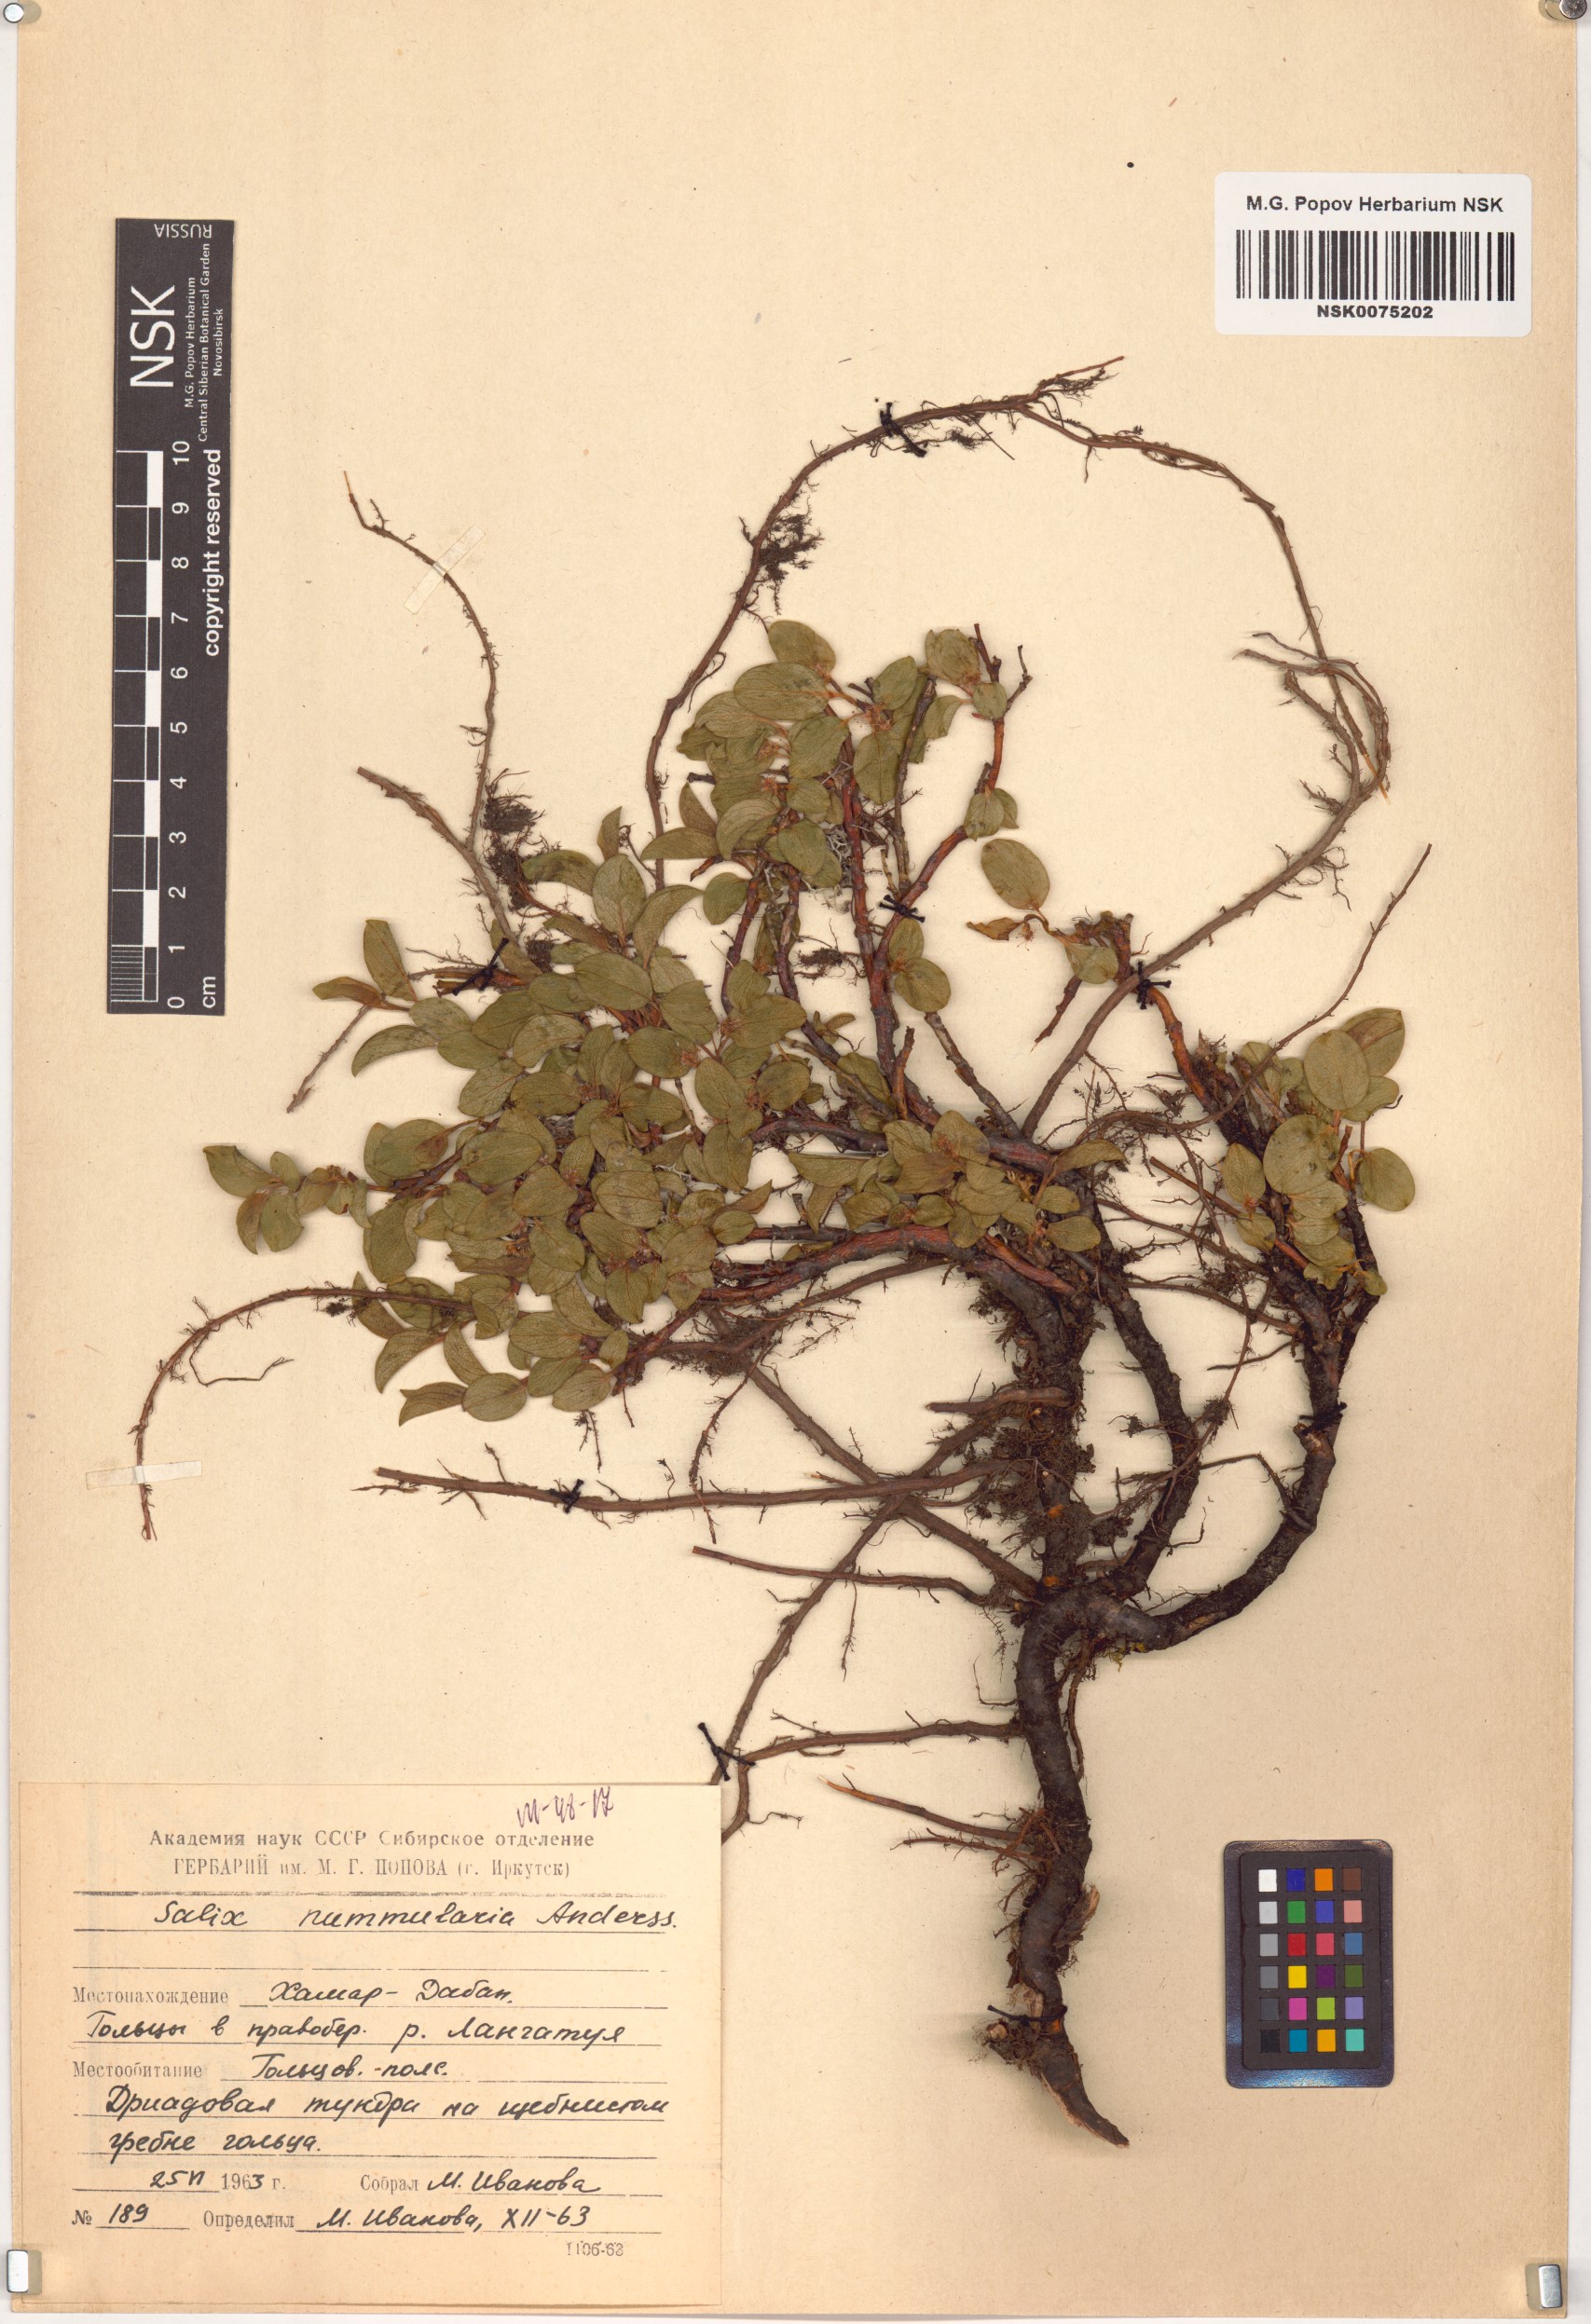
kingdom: Plantae
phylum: Tracheophyta
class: Magnoliopsida
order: Malpighiales
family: Salicaceae
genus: Salix
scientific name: Salix nummularia
